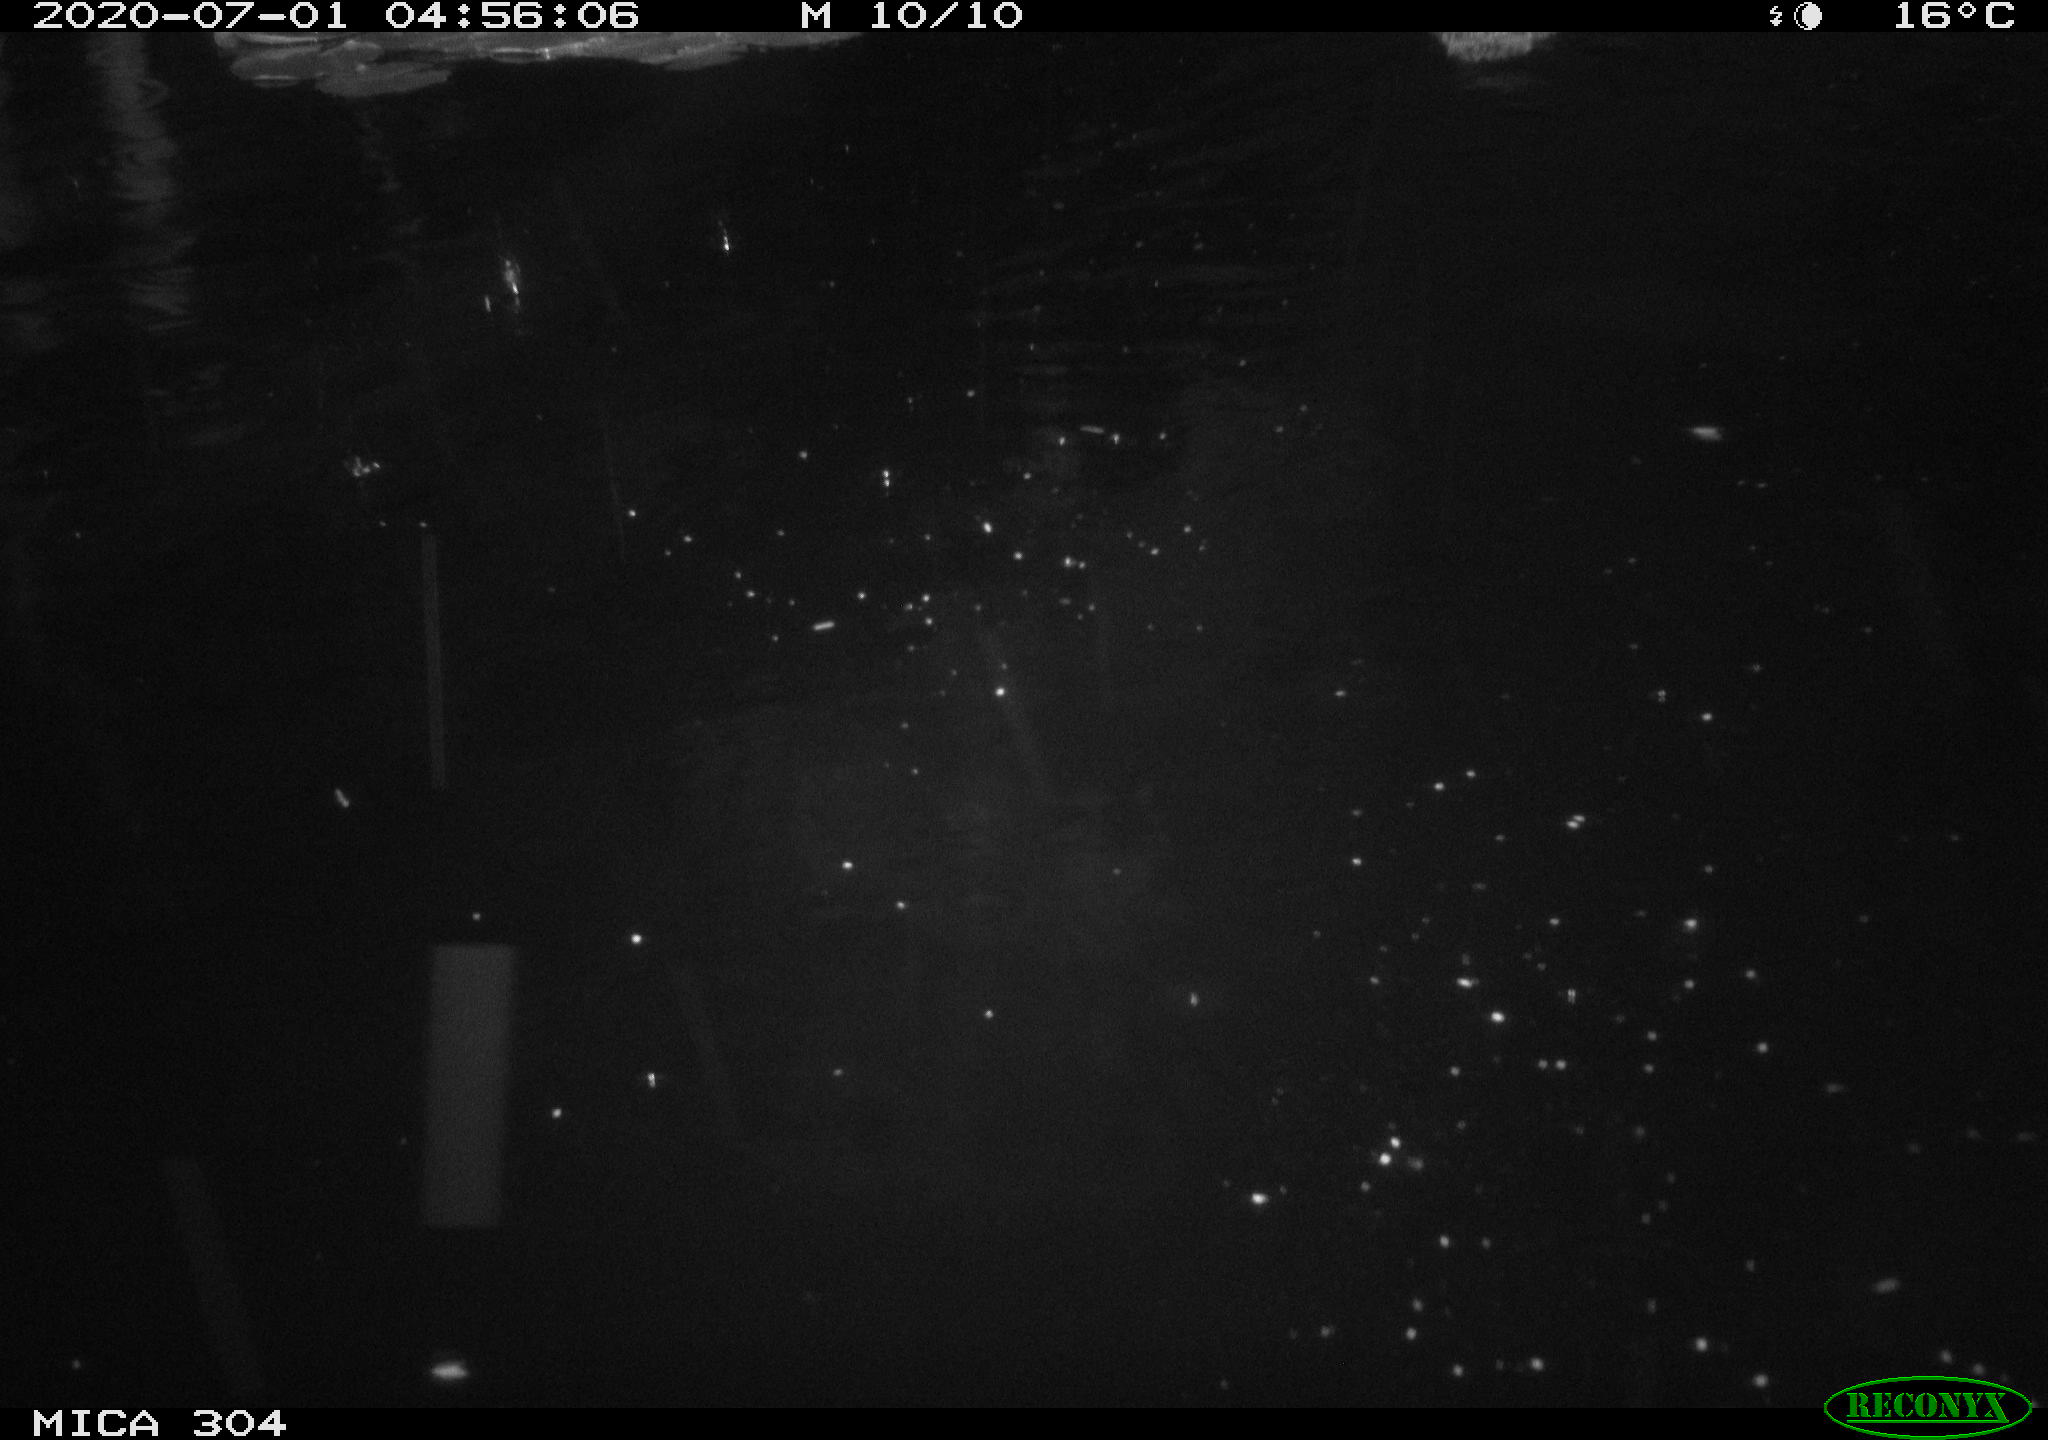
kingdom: Animalia
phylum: Chordata
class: Aves
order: Anseriformes
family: Anatidae
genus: Anas
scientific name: Anas platyrhynchos
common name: Mallard
